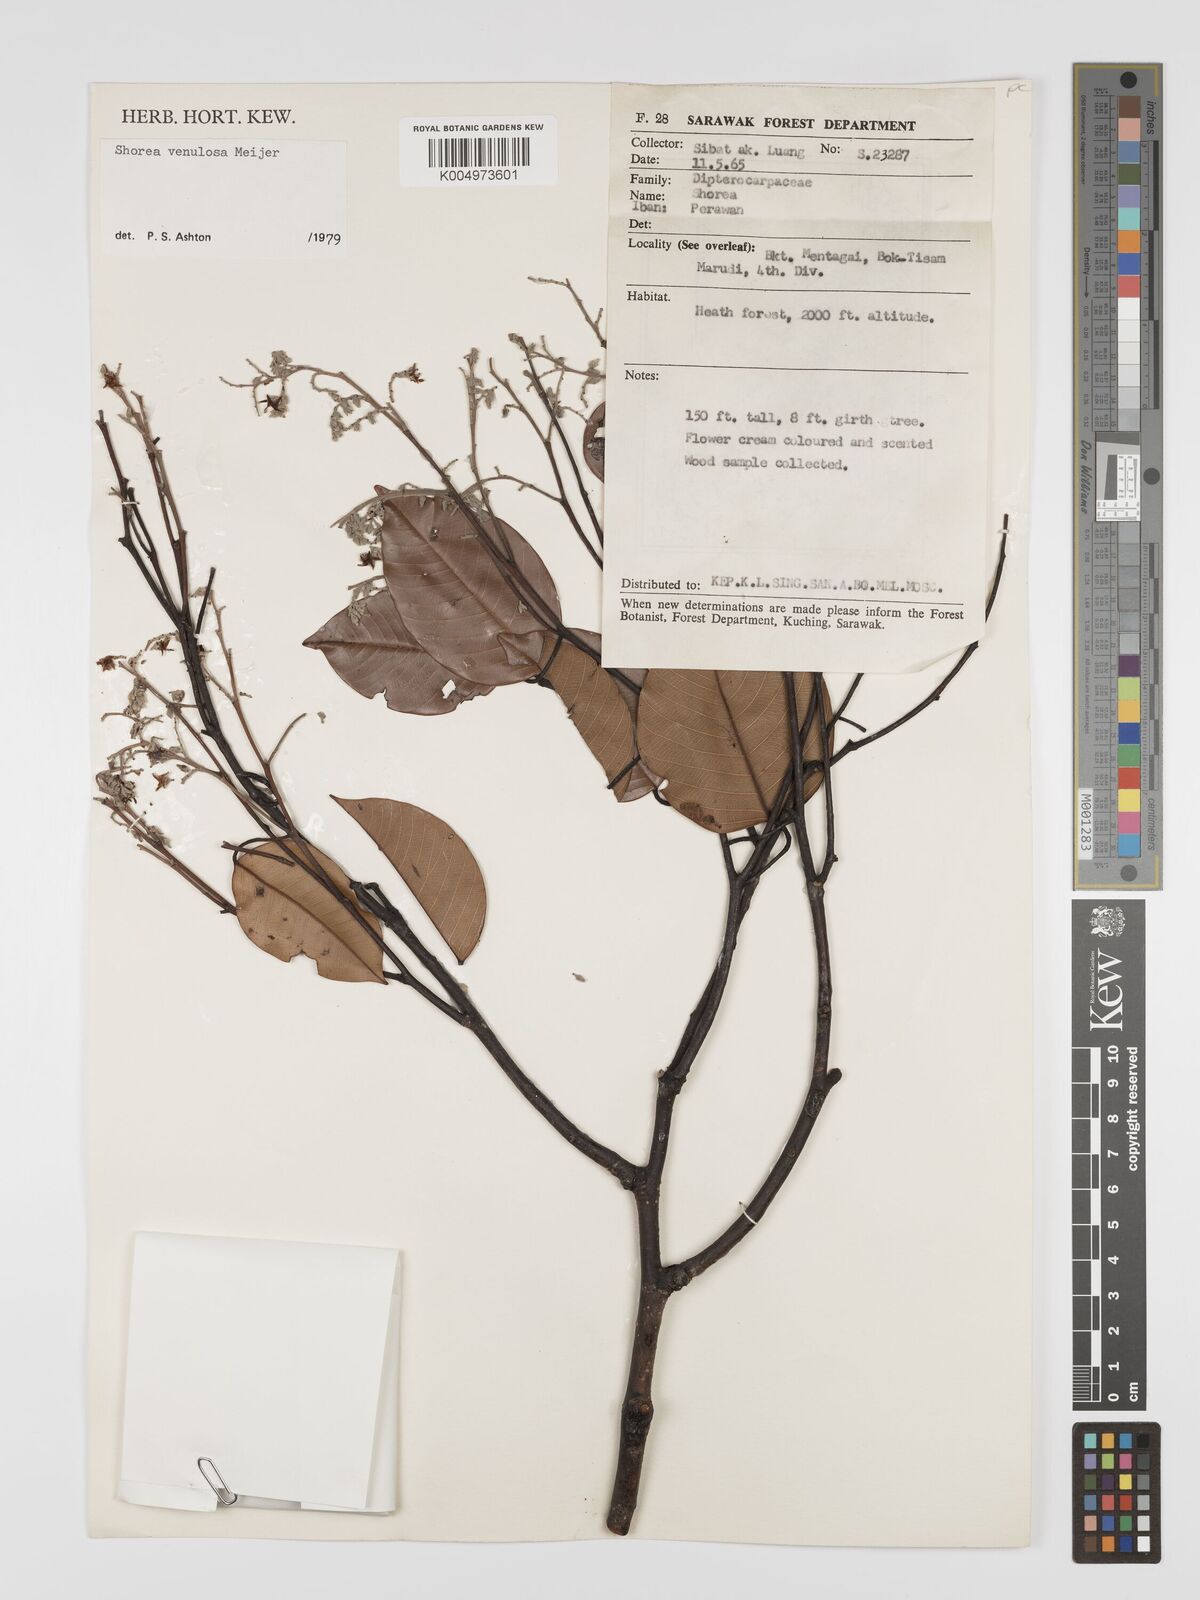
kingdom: Plantae
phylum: Tracheophyta
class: Magnoliopsida
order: Malvales
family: Dipterocarpaceae
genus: Shorea
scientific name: Shorea venulosa
